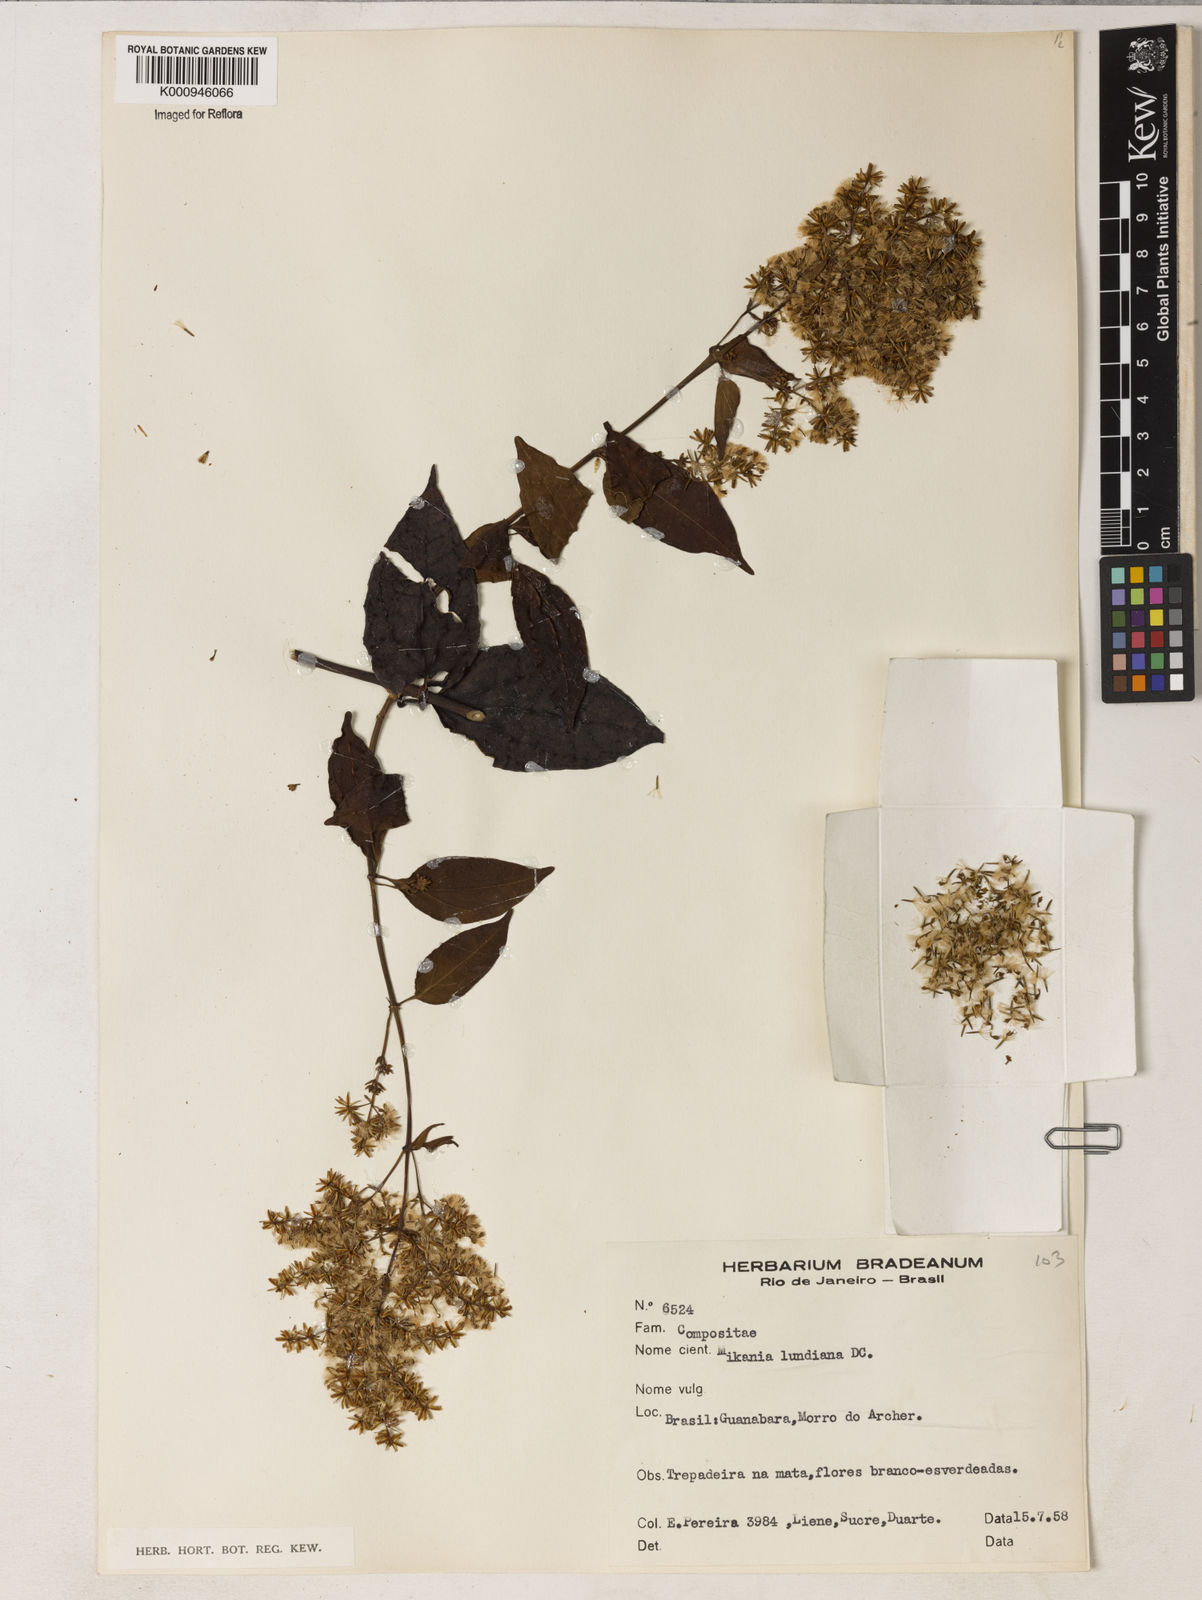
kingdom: Plantae
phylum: Tracheophyta
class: Magnoliopsida
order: Asterales
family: Asteraceae
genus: Mikania
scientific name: Mikania lundiana
